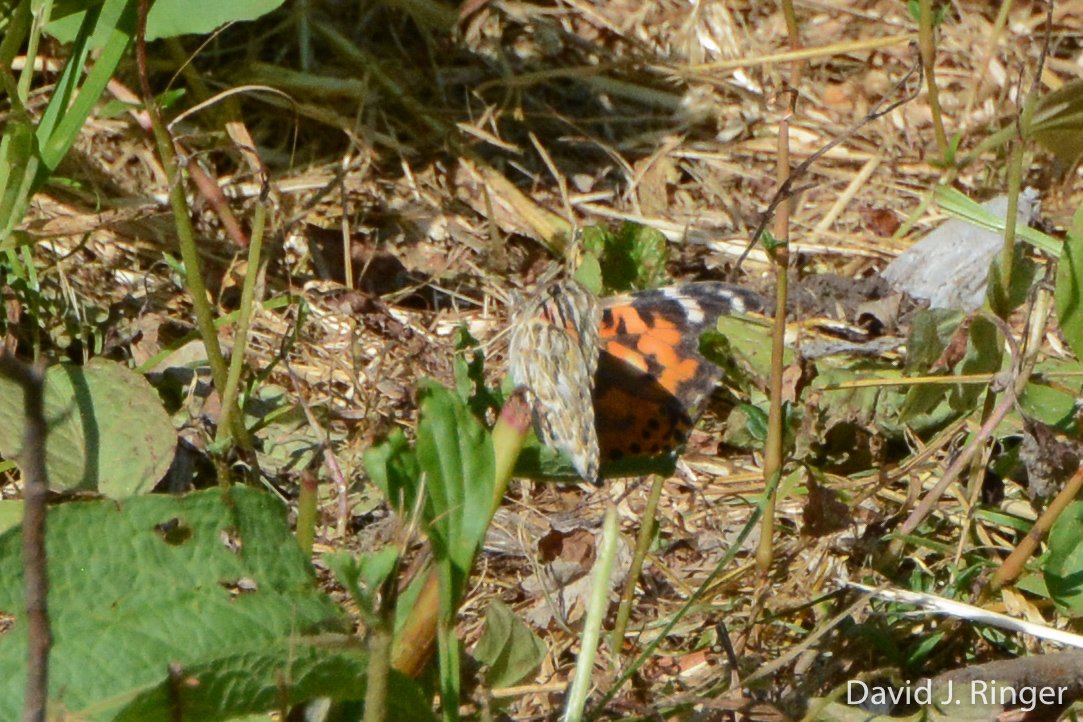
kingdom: Animalia
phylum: Arthropoda
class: Insecta
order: Lepidoptera
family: Nymphalidae
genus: Vanessa
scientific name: Vanessa cardui
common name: Painted Lady
